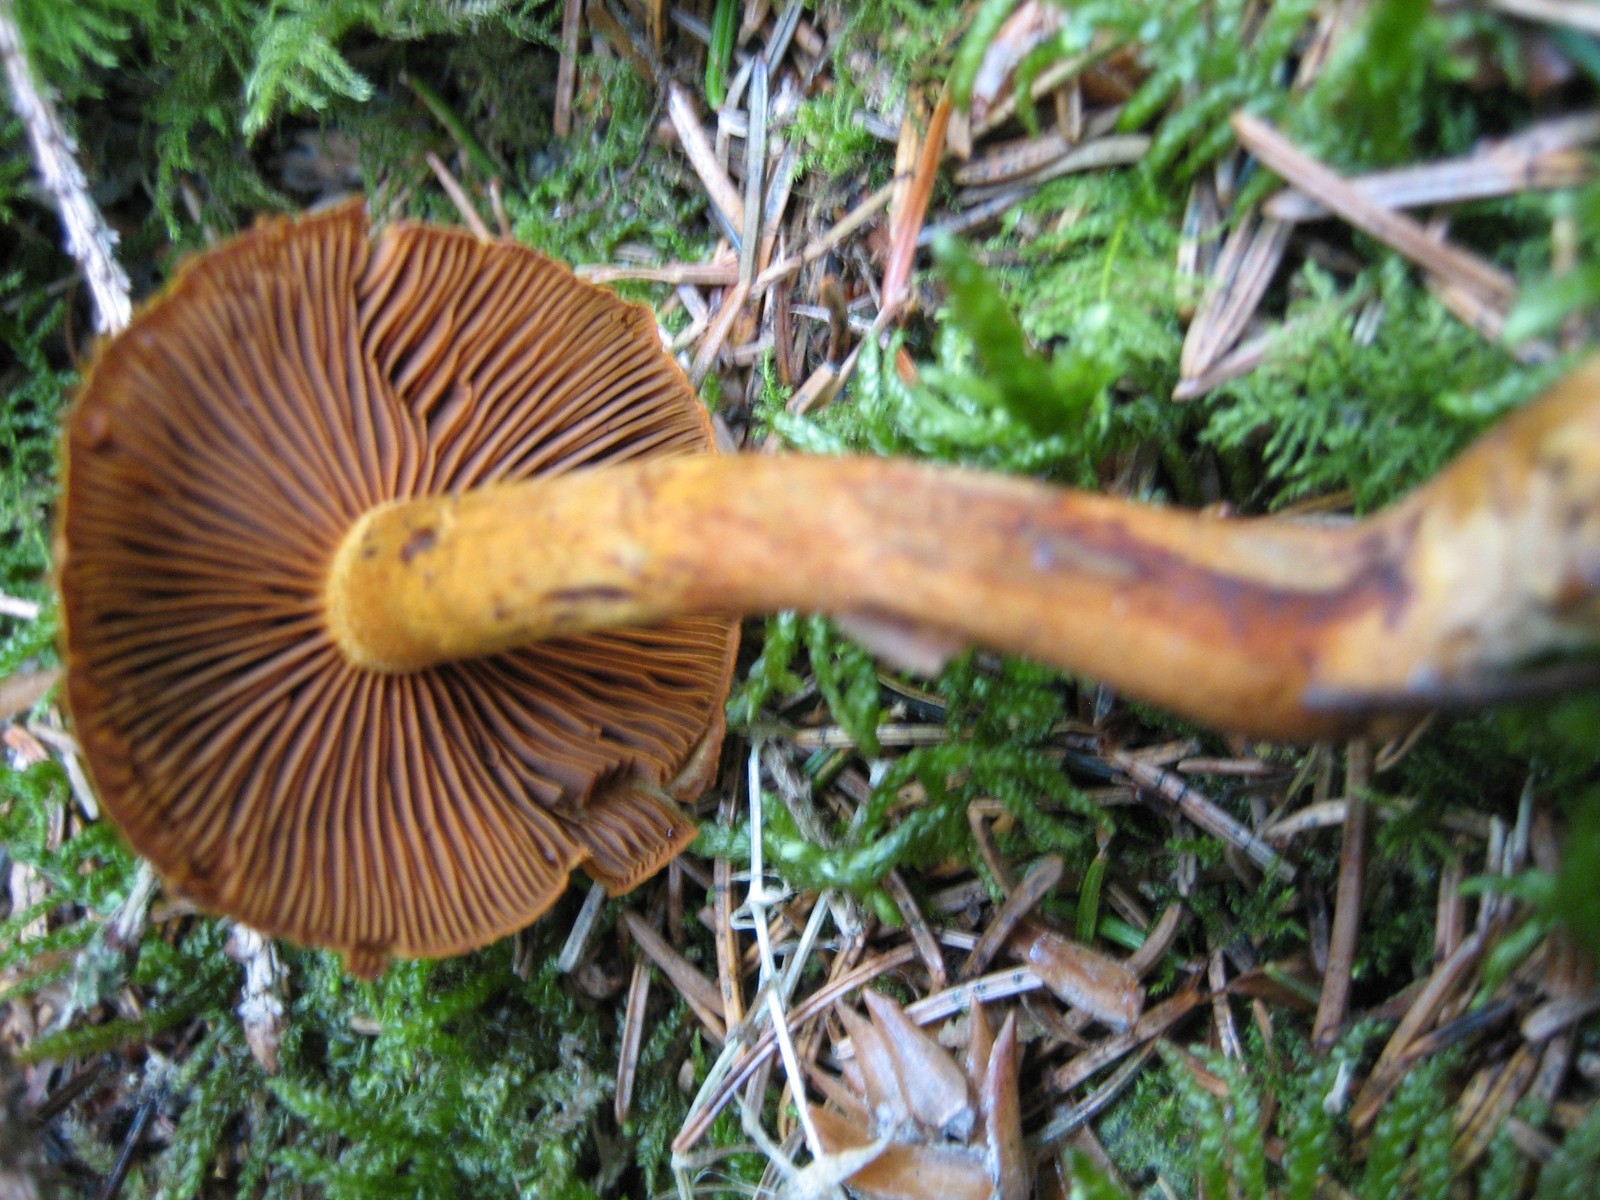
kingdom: Fungi
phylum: Basidiomycota
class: Agaricomycetes
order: Agaricales
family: Cortinariaceae
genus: Cortinarius
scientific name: Cortinarius
